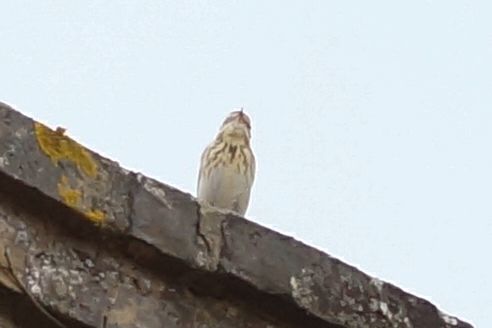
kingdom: Animalia
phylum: Chordata
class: Aves
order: Passeriformes
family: Motacillidae
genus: Anthus
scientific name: Anthus trivialis
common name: Skovpiber
